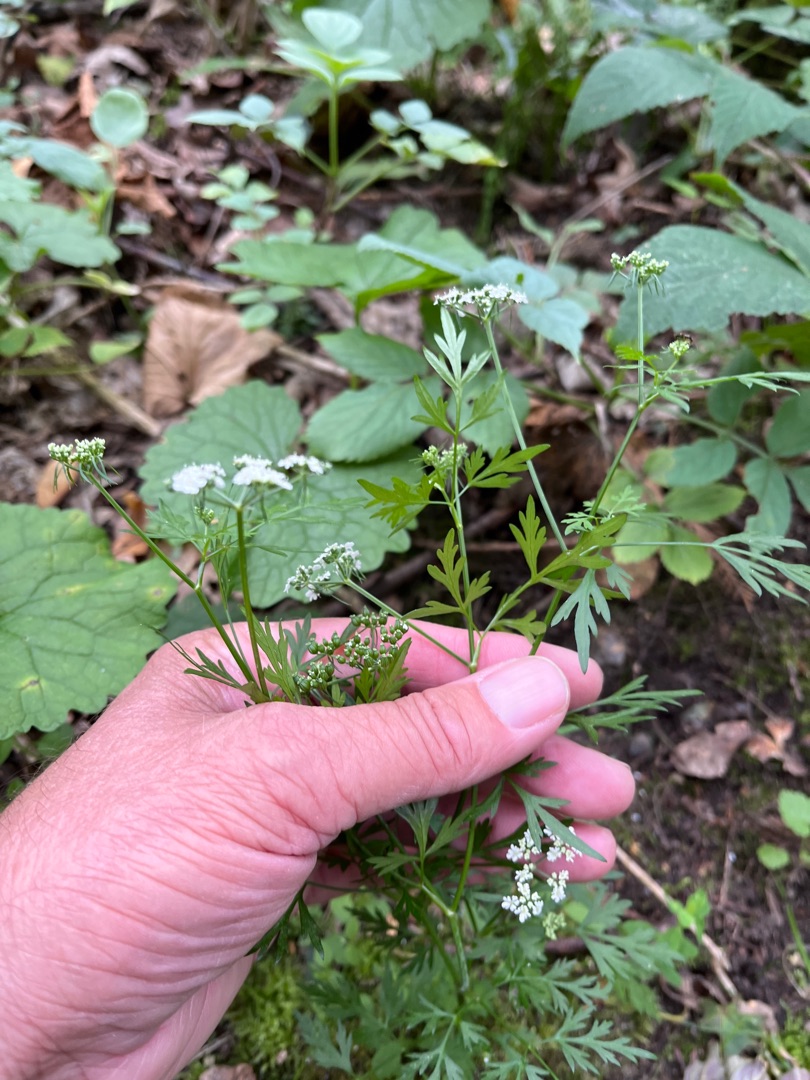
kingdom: Plantae
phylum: Tracheophyta
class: Magnoliopsida
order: Apiales
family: Apiaceae
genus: Aethusa
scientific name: Aethusa cynapium
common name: Hundepersille
